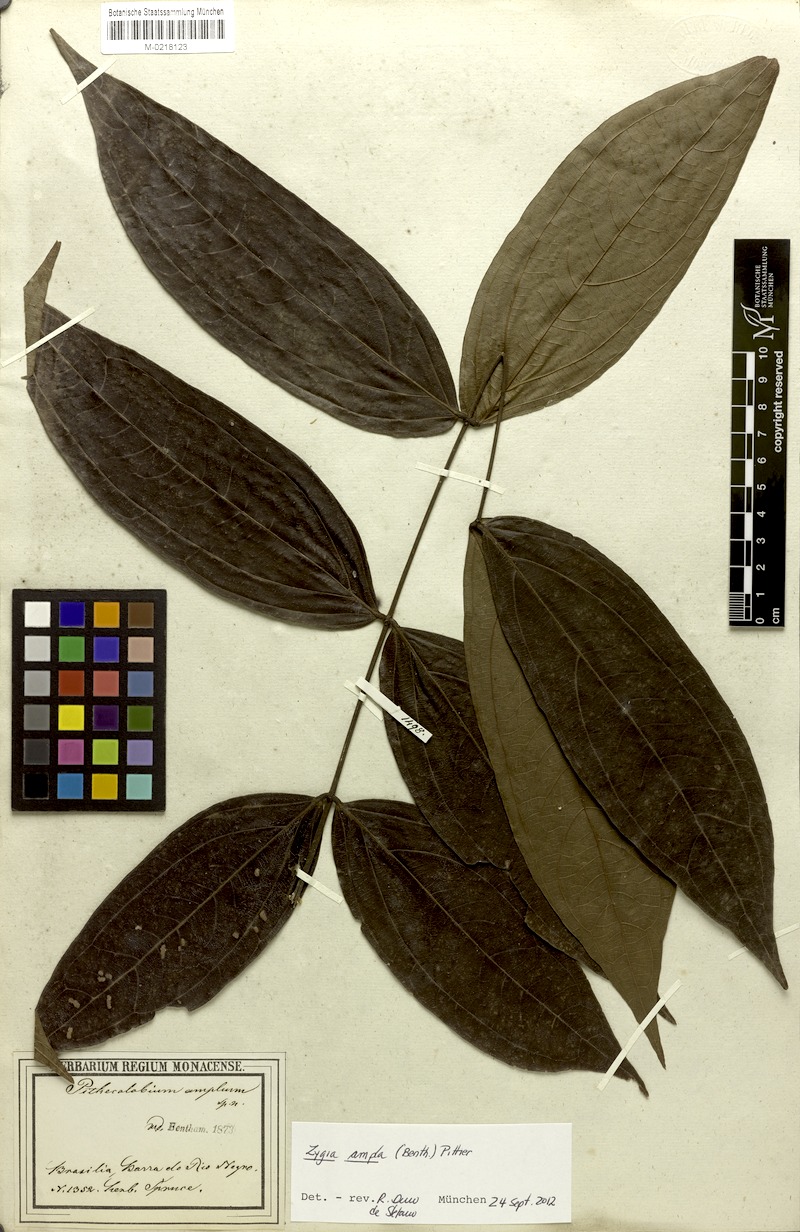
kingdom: Plantae
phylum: Tracheophyta
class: Magnoliopsida
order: Fabales
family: Fabaceae
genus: Zygia
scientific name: Zygia ampla
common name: Jarendeua de sapo
